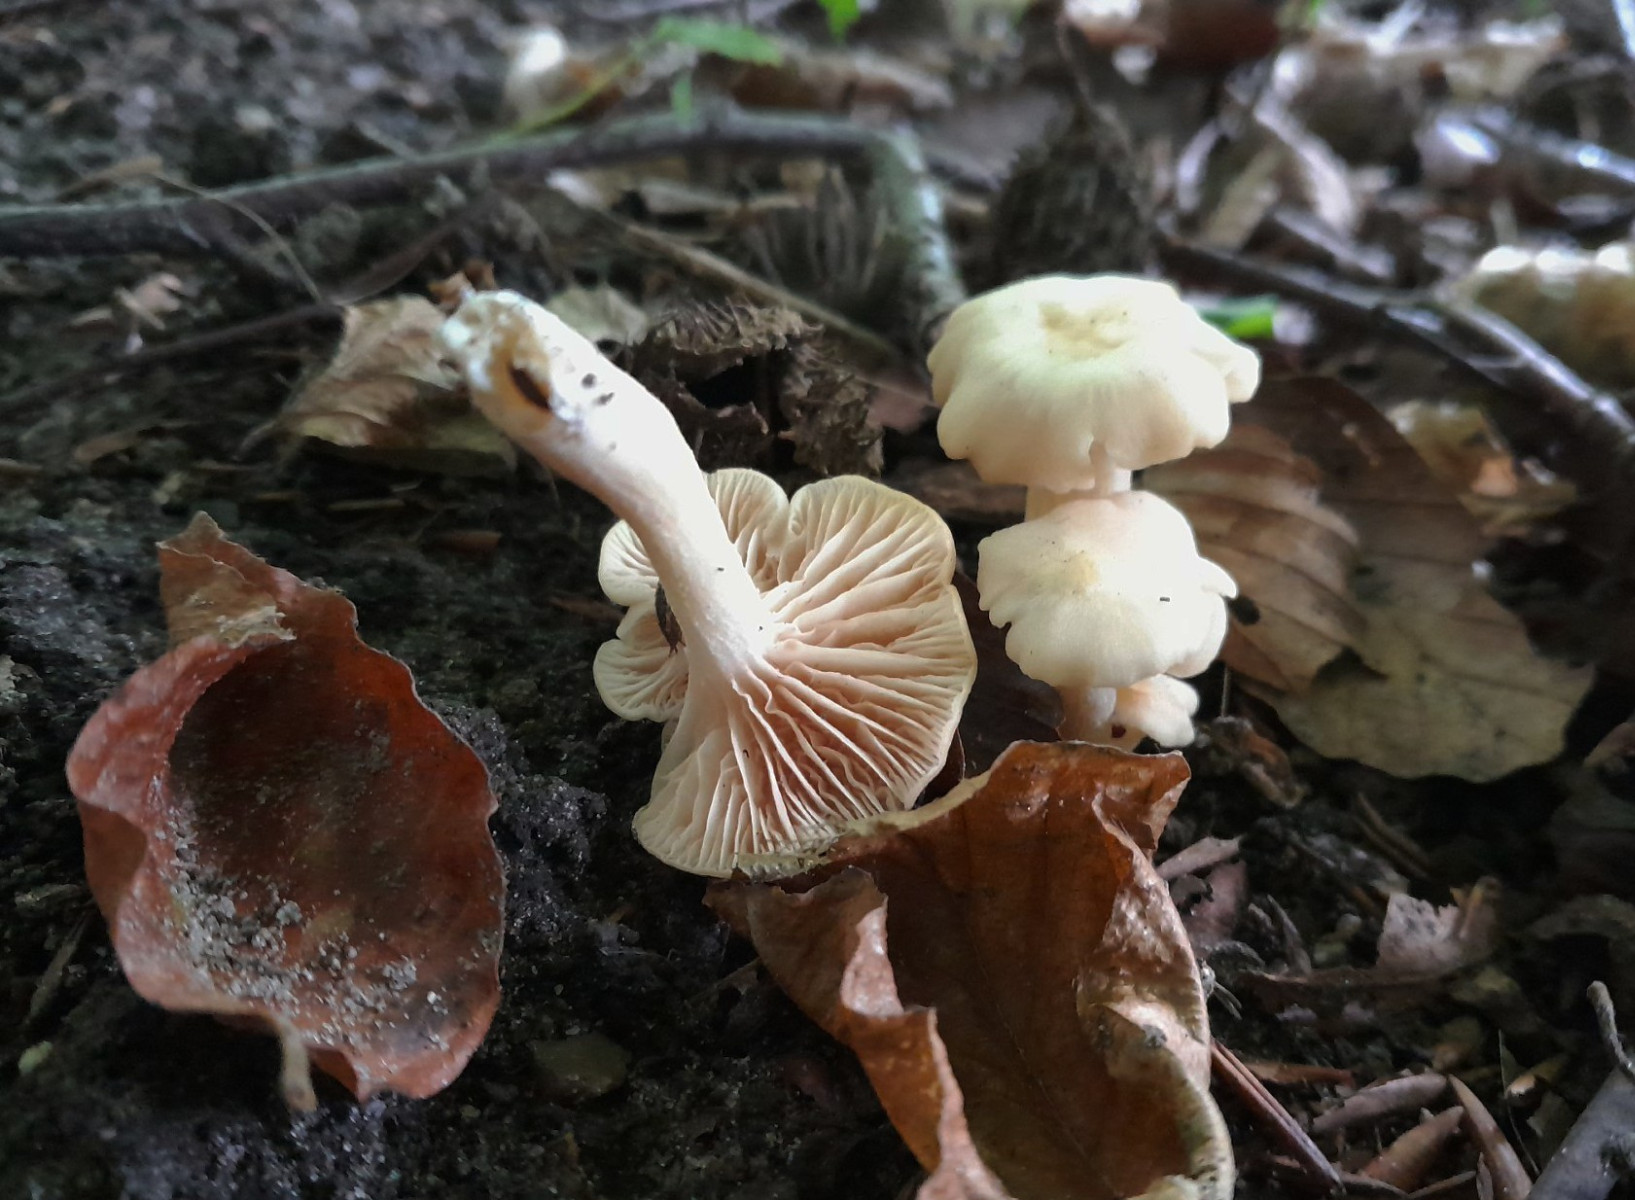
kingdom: Fungi
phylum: Basidiomycota
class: Agaricomycetes
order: Agaricales
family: Entolomataceae
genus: Entoloma
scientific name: Entoloma
